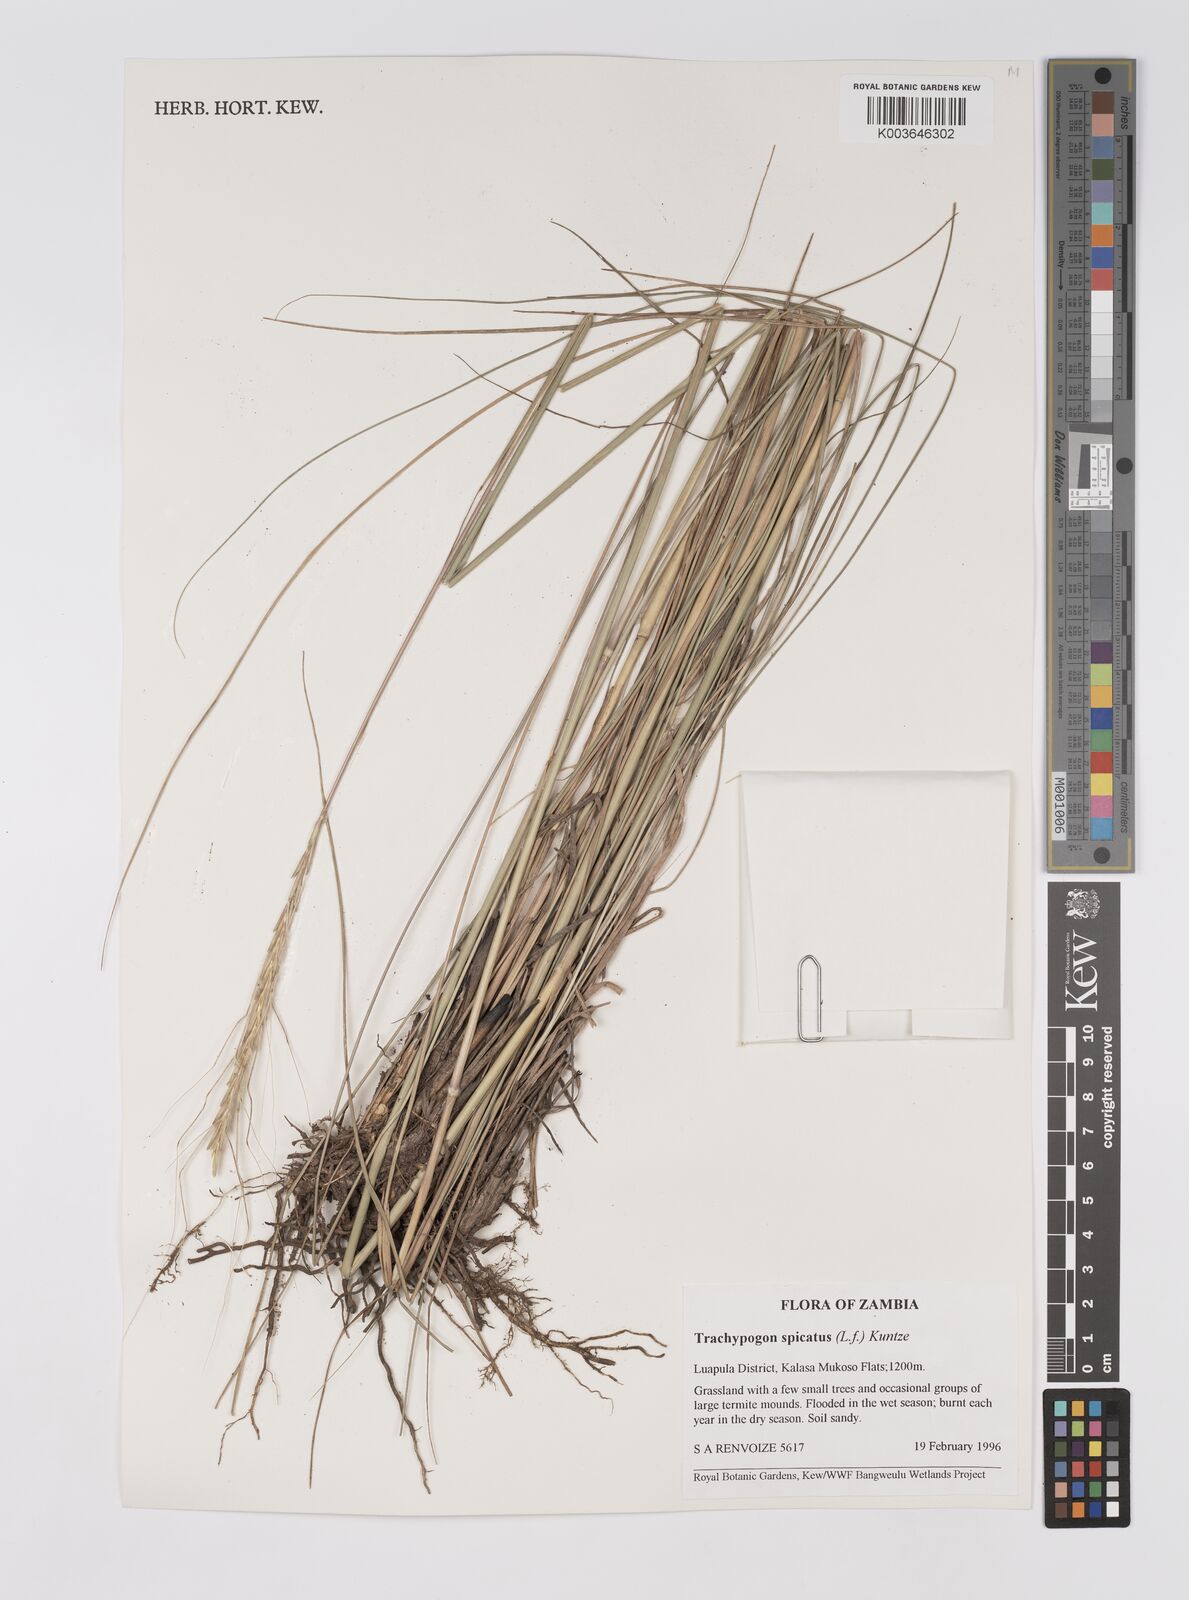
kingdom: Plantae
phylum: Tracheophyta
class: Liliopsida
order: Poales
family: Poaceae
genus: Trachypogon
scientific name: Trachypogon spicatus
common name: Crinkle-awn
